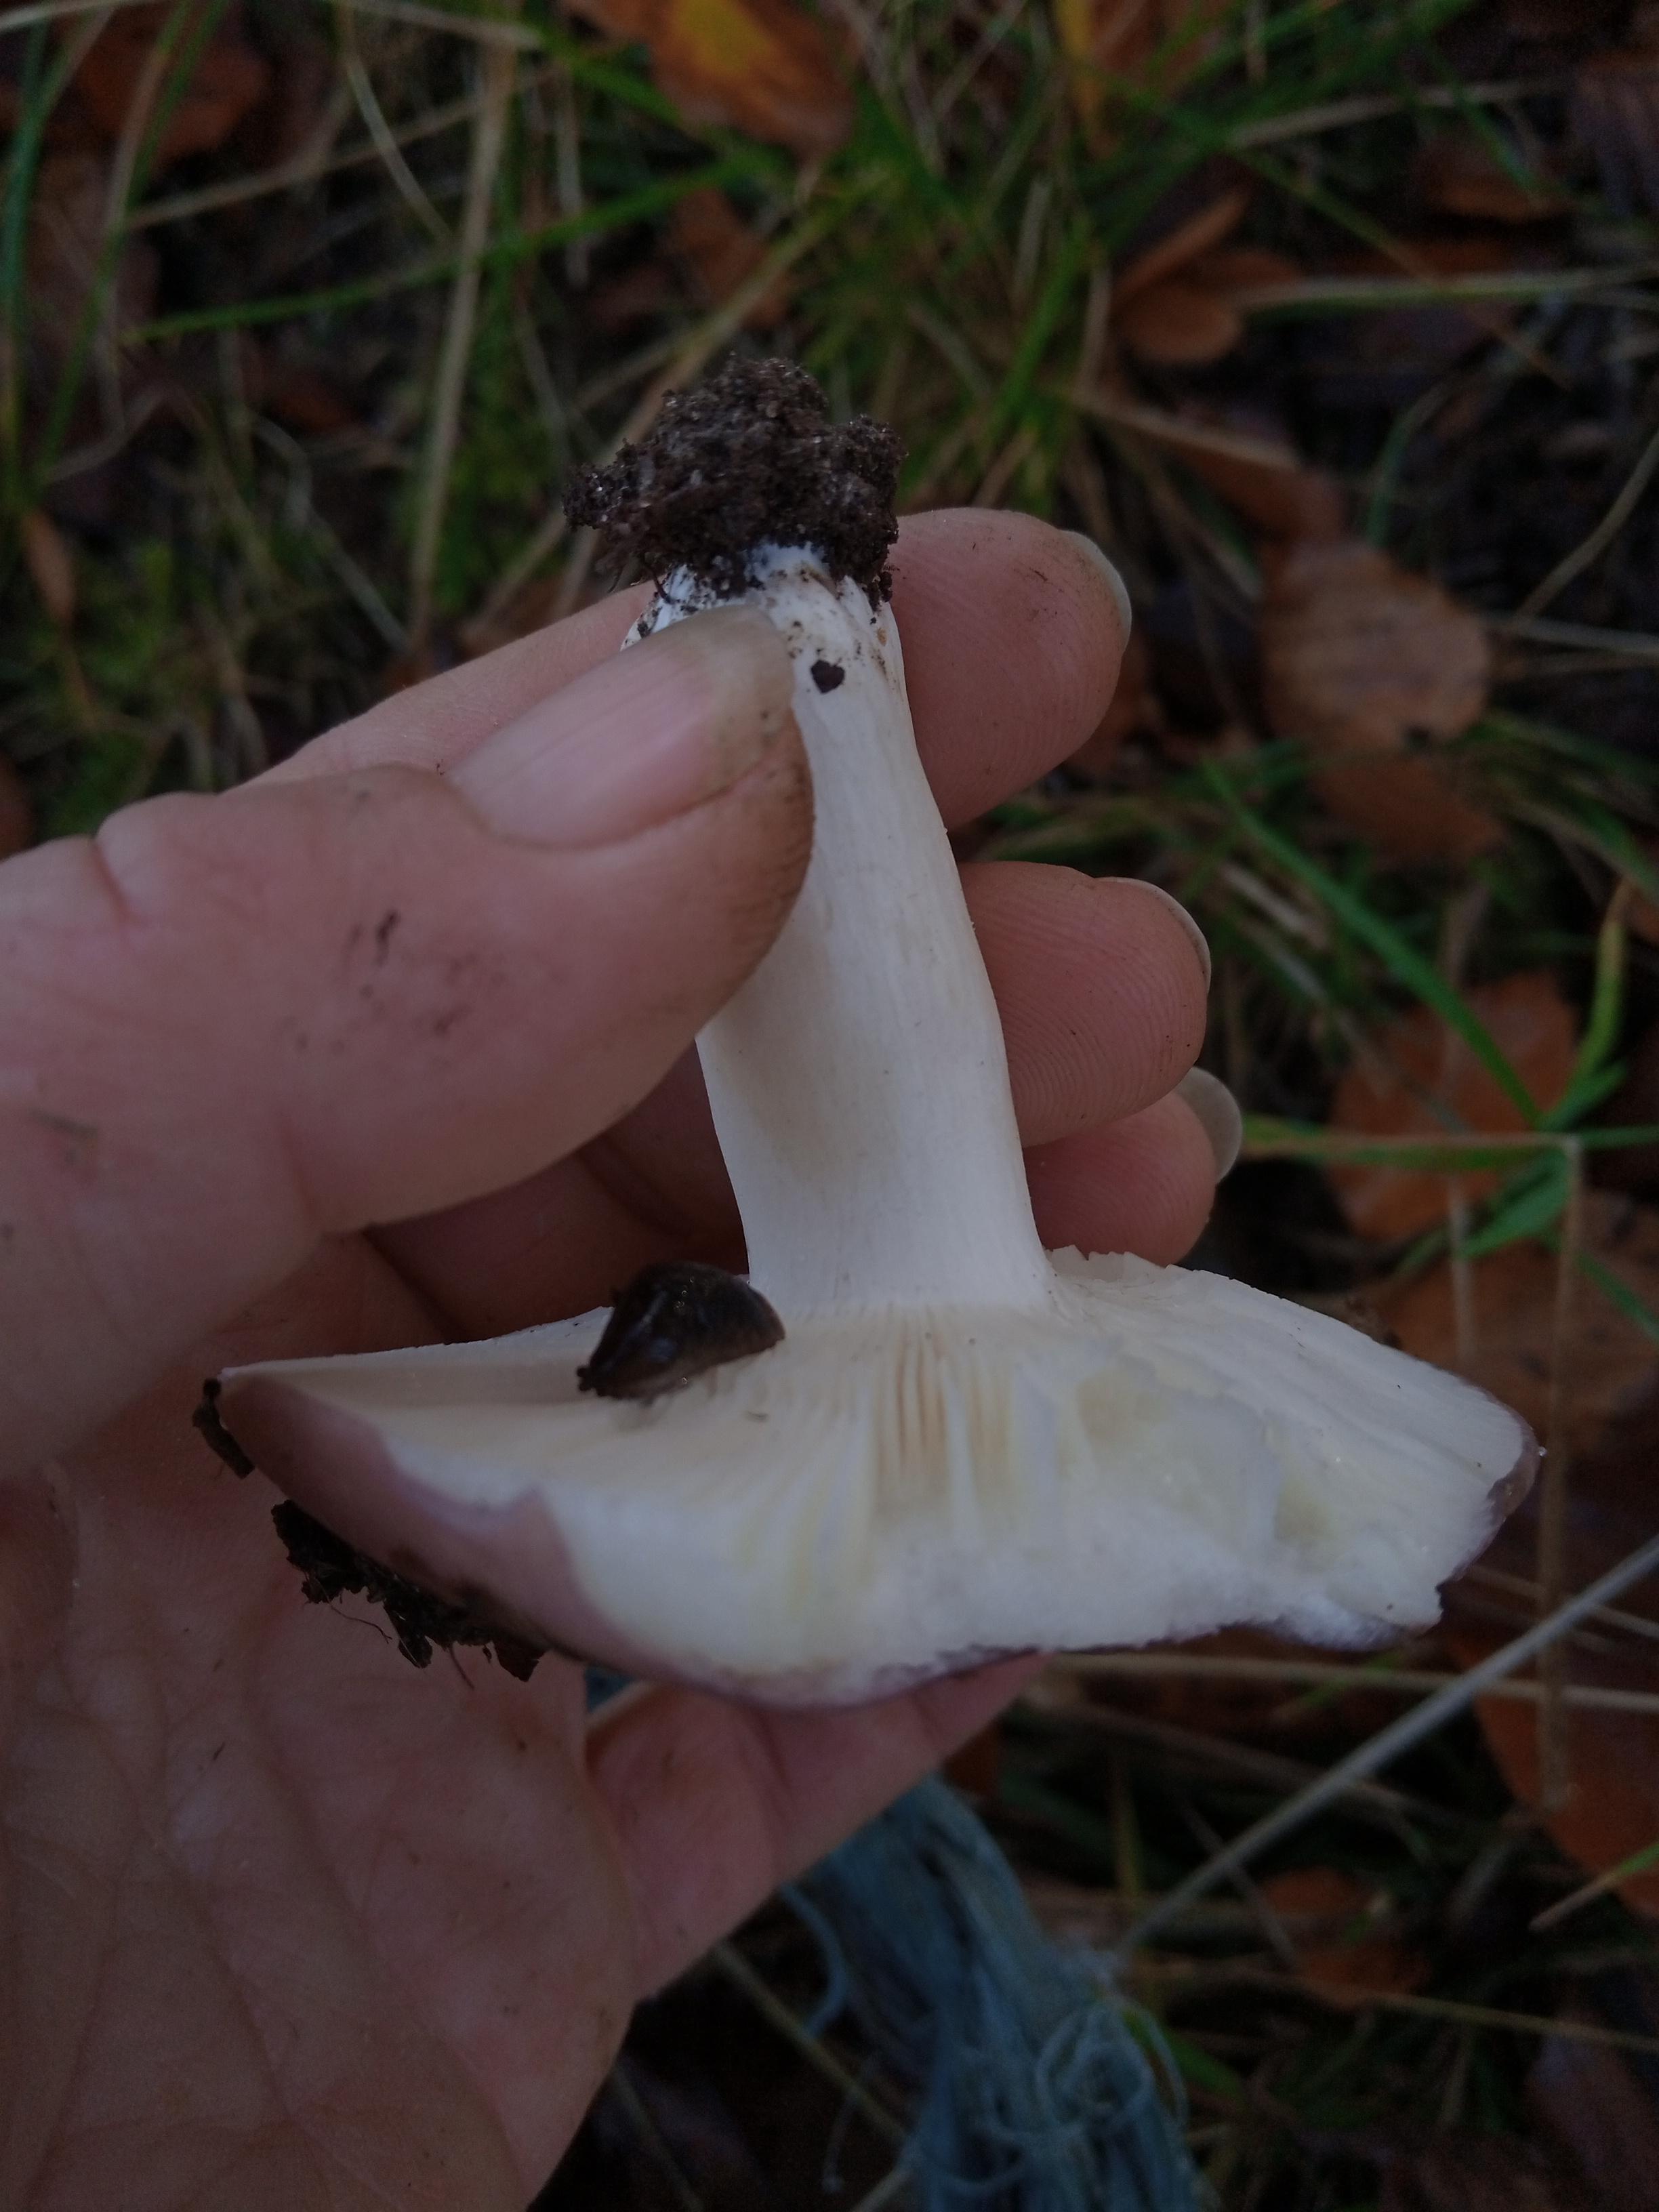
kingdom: Fungi
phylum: Basidiomycota
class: Agaricomycetes
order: Russulales
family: Russulaceae
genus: Russula
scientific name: Russula
